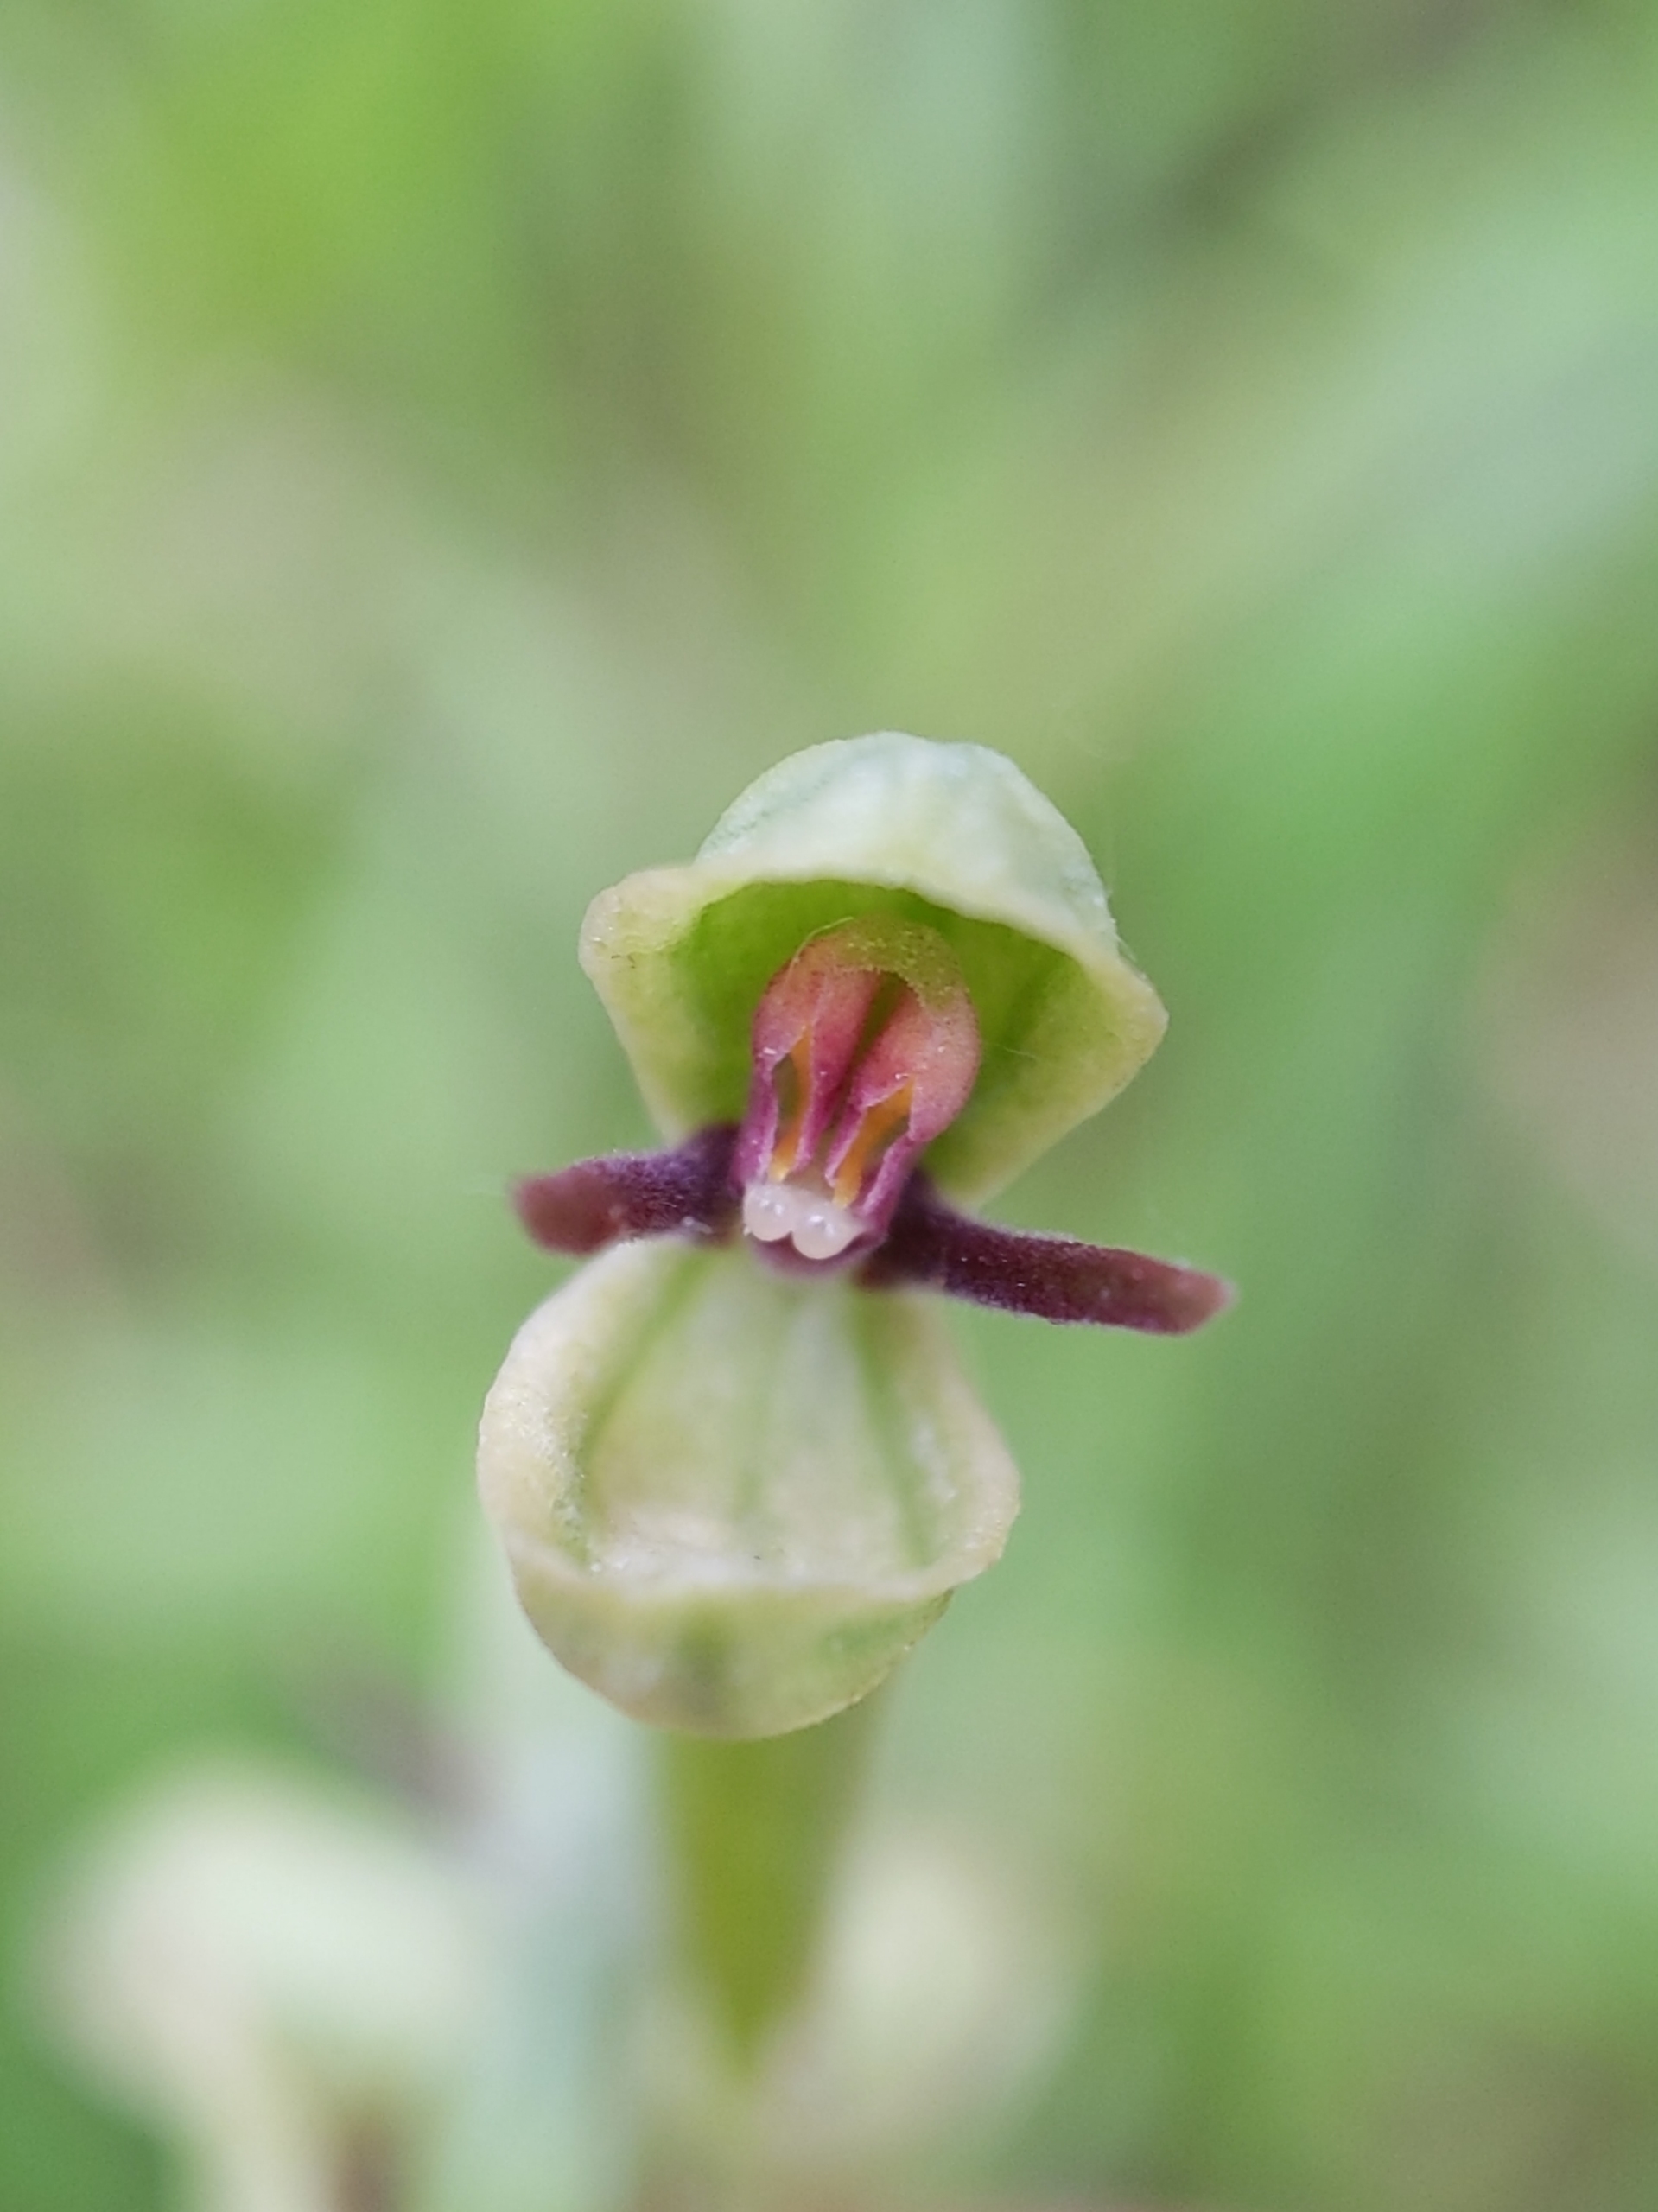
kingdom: Plantae
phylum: Tracheophyta
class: Liliopsida
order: Asparagales
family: Orchidaceae
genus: Ophrys
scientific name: Ophrys insectifera
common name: Flueblomst
